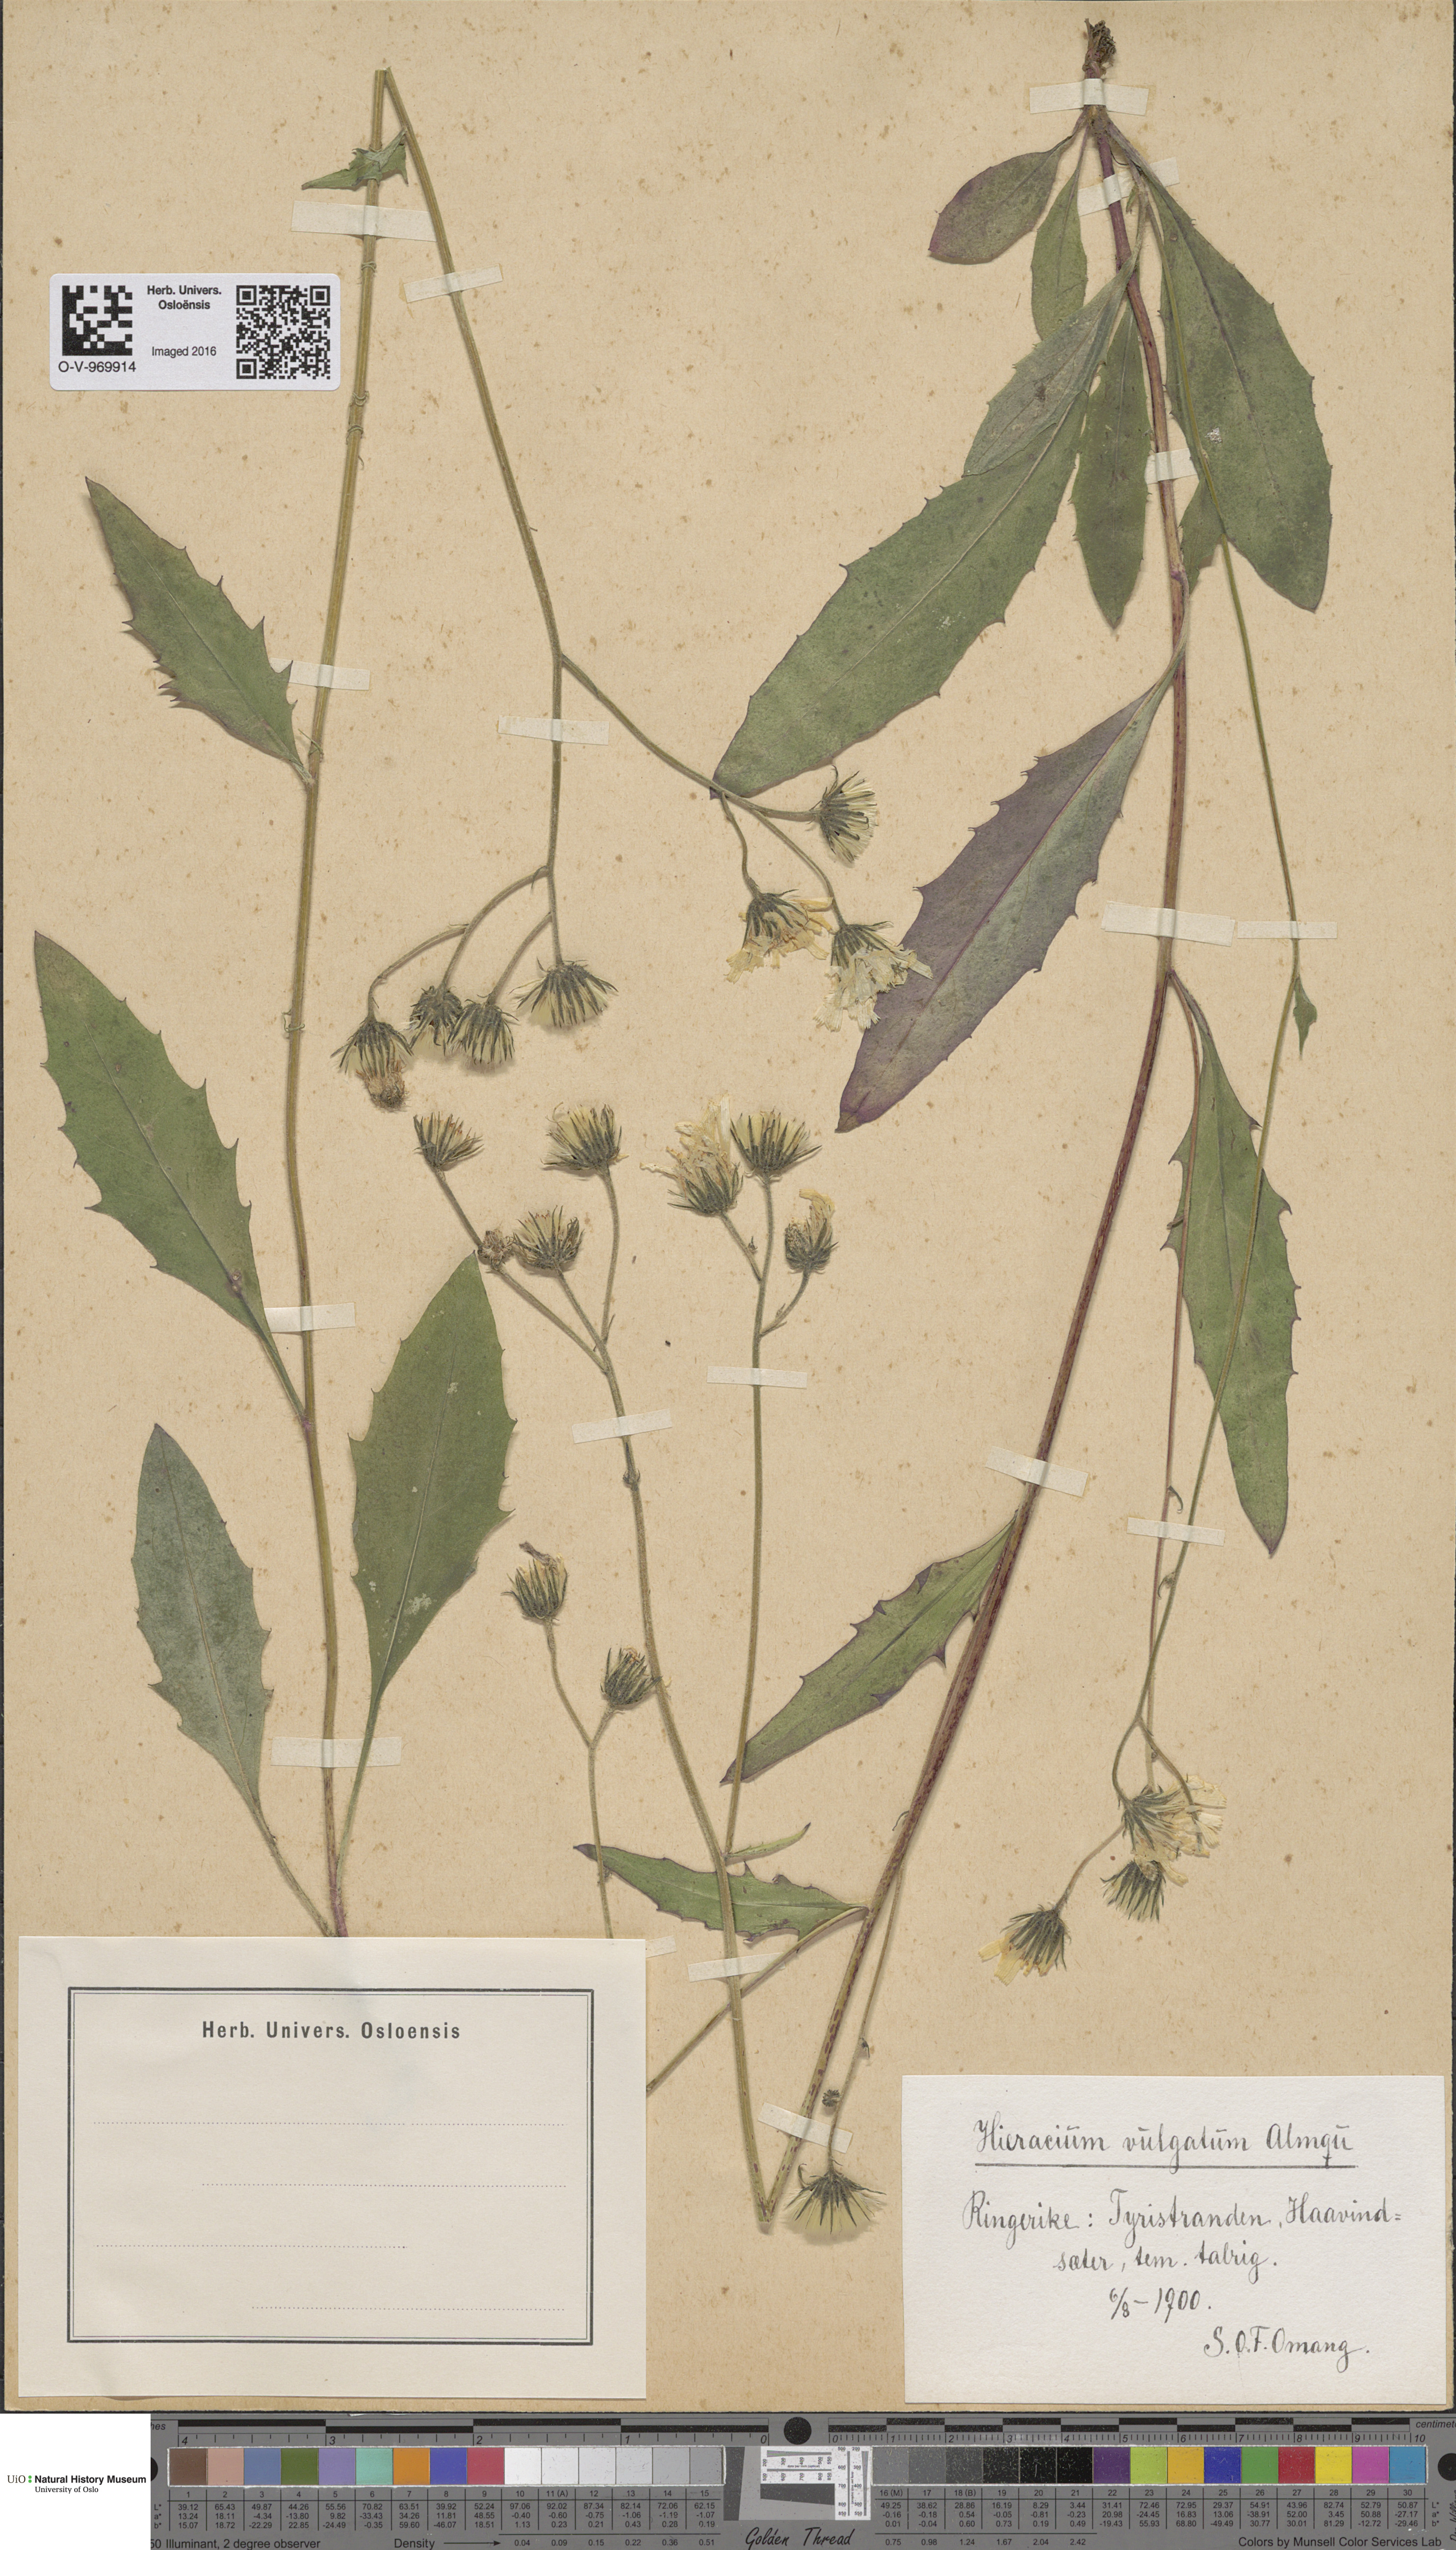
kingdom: Plantae
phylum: Tracheophyta
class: Magnoliopsida
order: Asterales
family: Asteraceae
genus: Hieracium
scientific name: Hieracium vulgatum
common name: Common hawkweed
